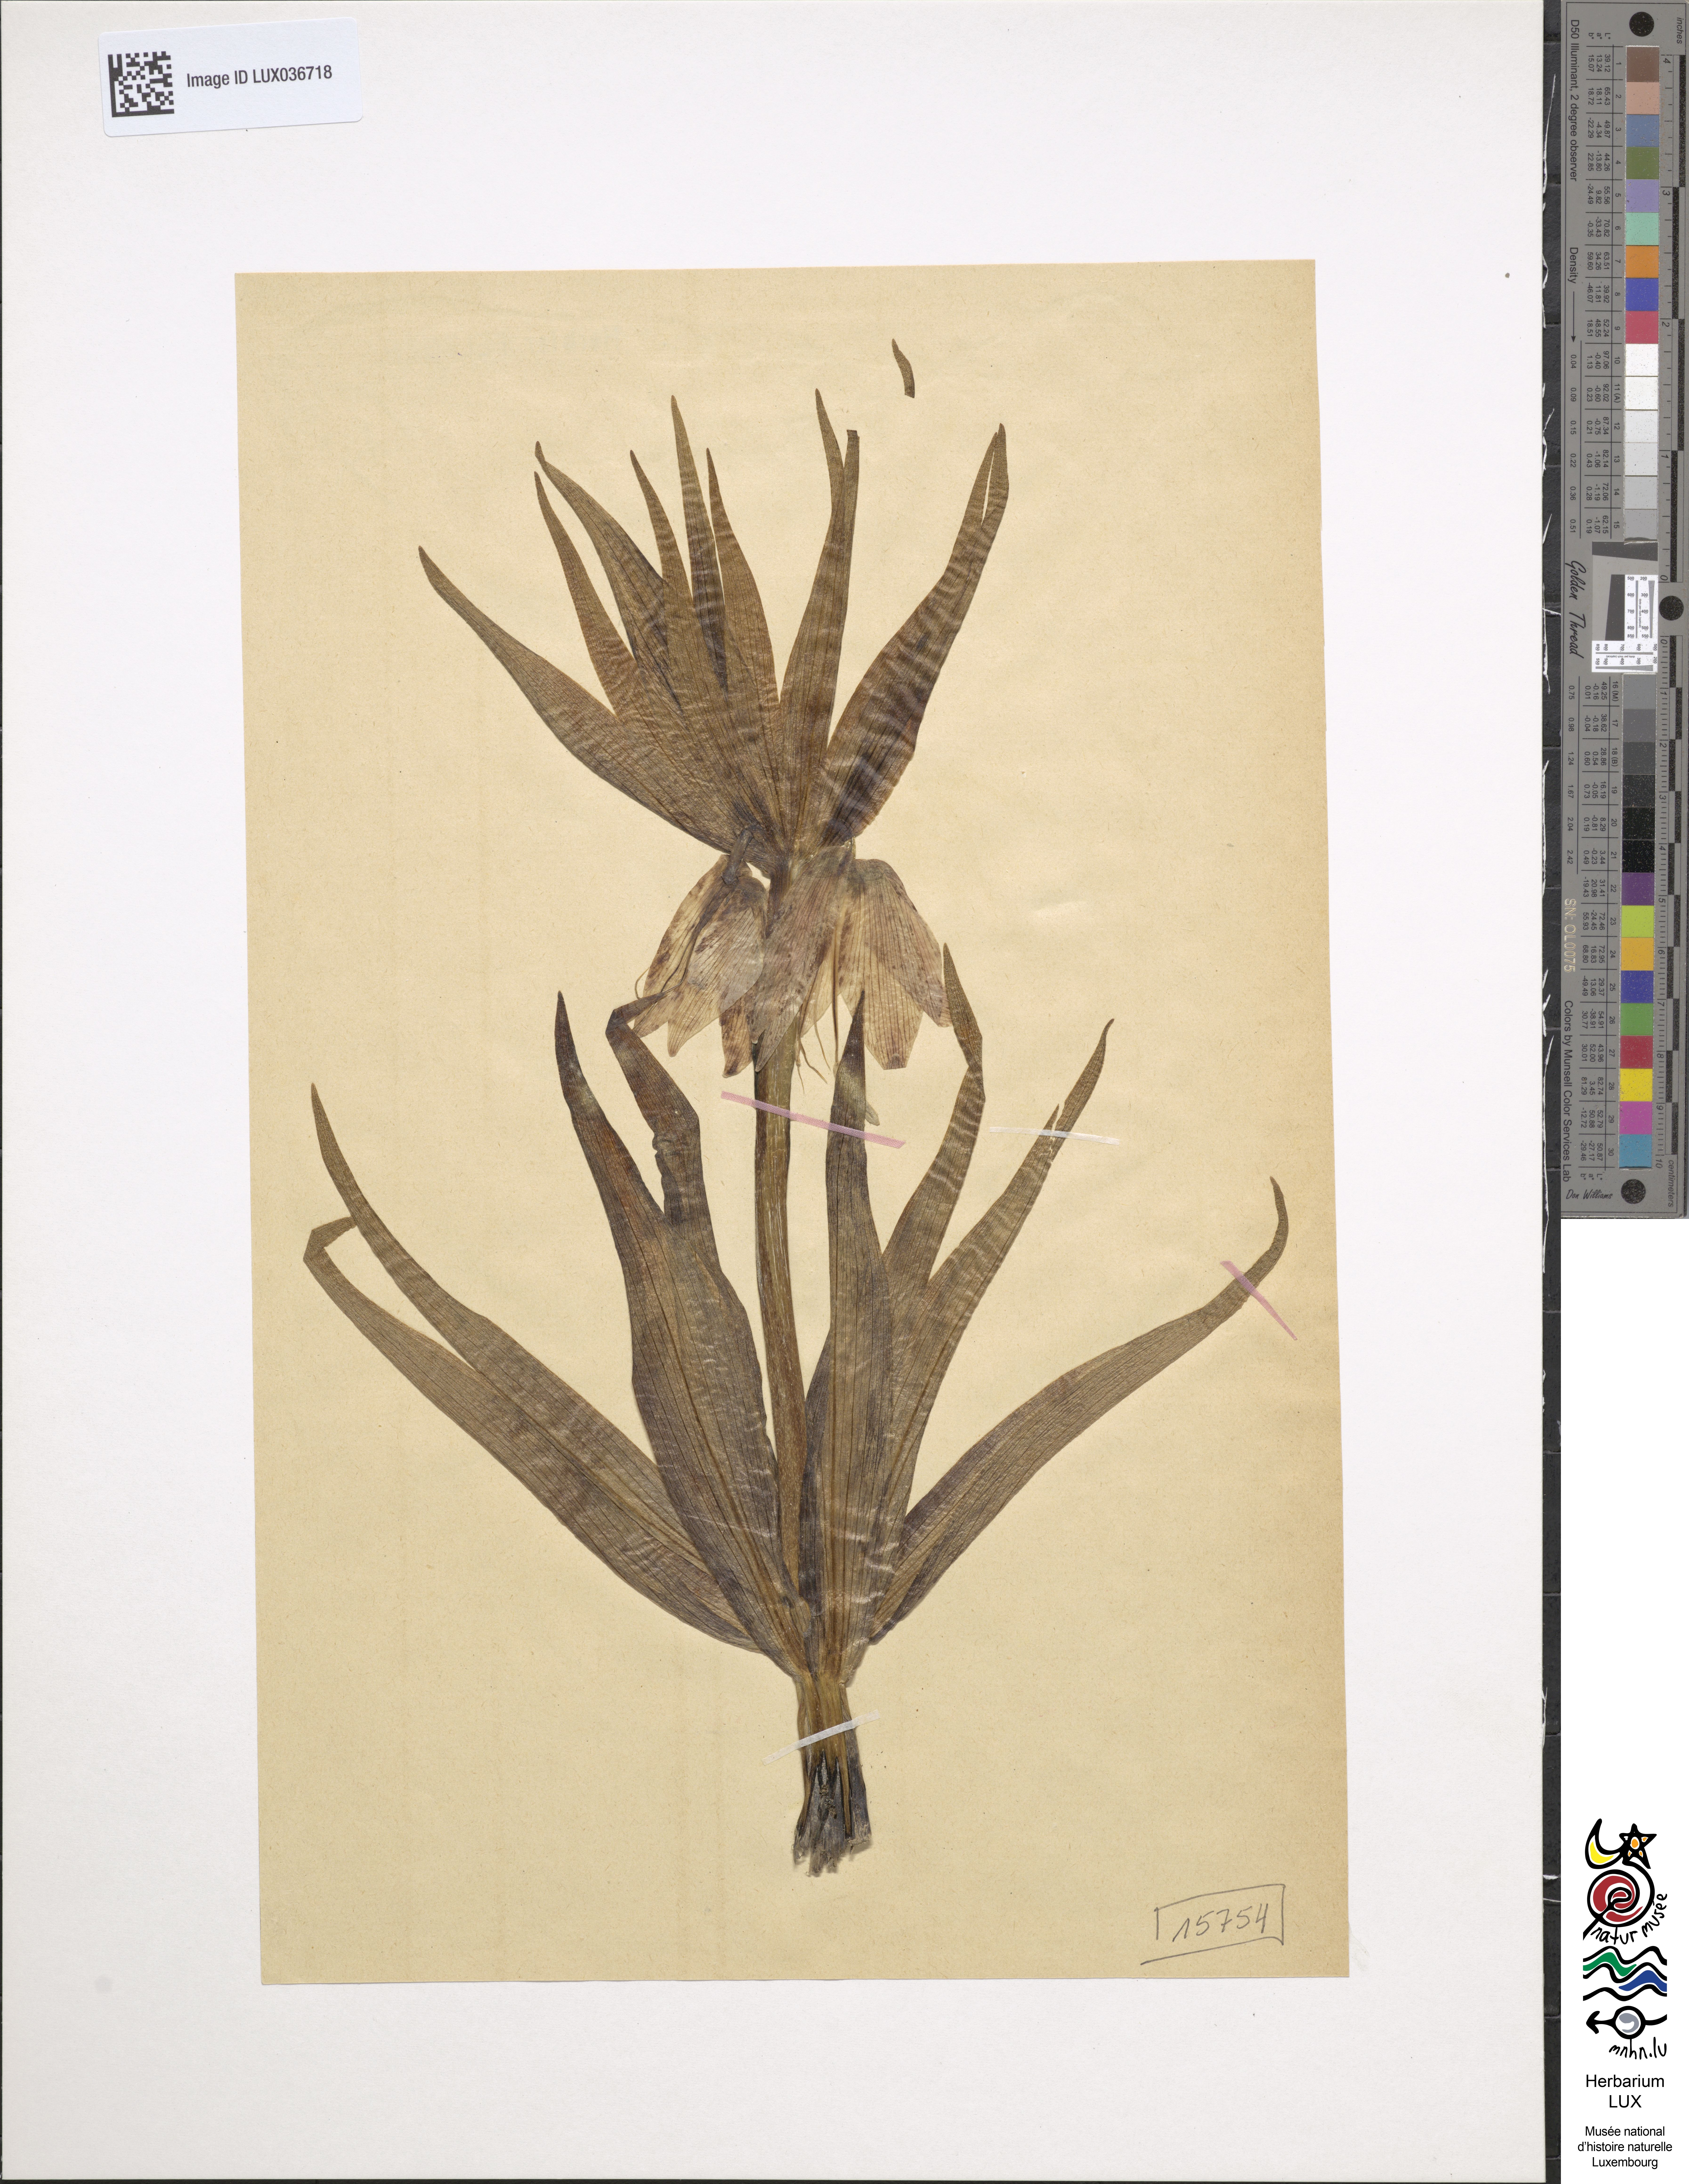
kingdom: Plantae
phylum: Tracheophyta
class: Liliopsida
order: Liliales
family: Liliaceae
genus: Fritillaria
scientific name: Fritillaria imperialis
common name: Imperial fritillary
